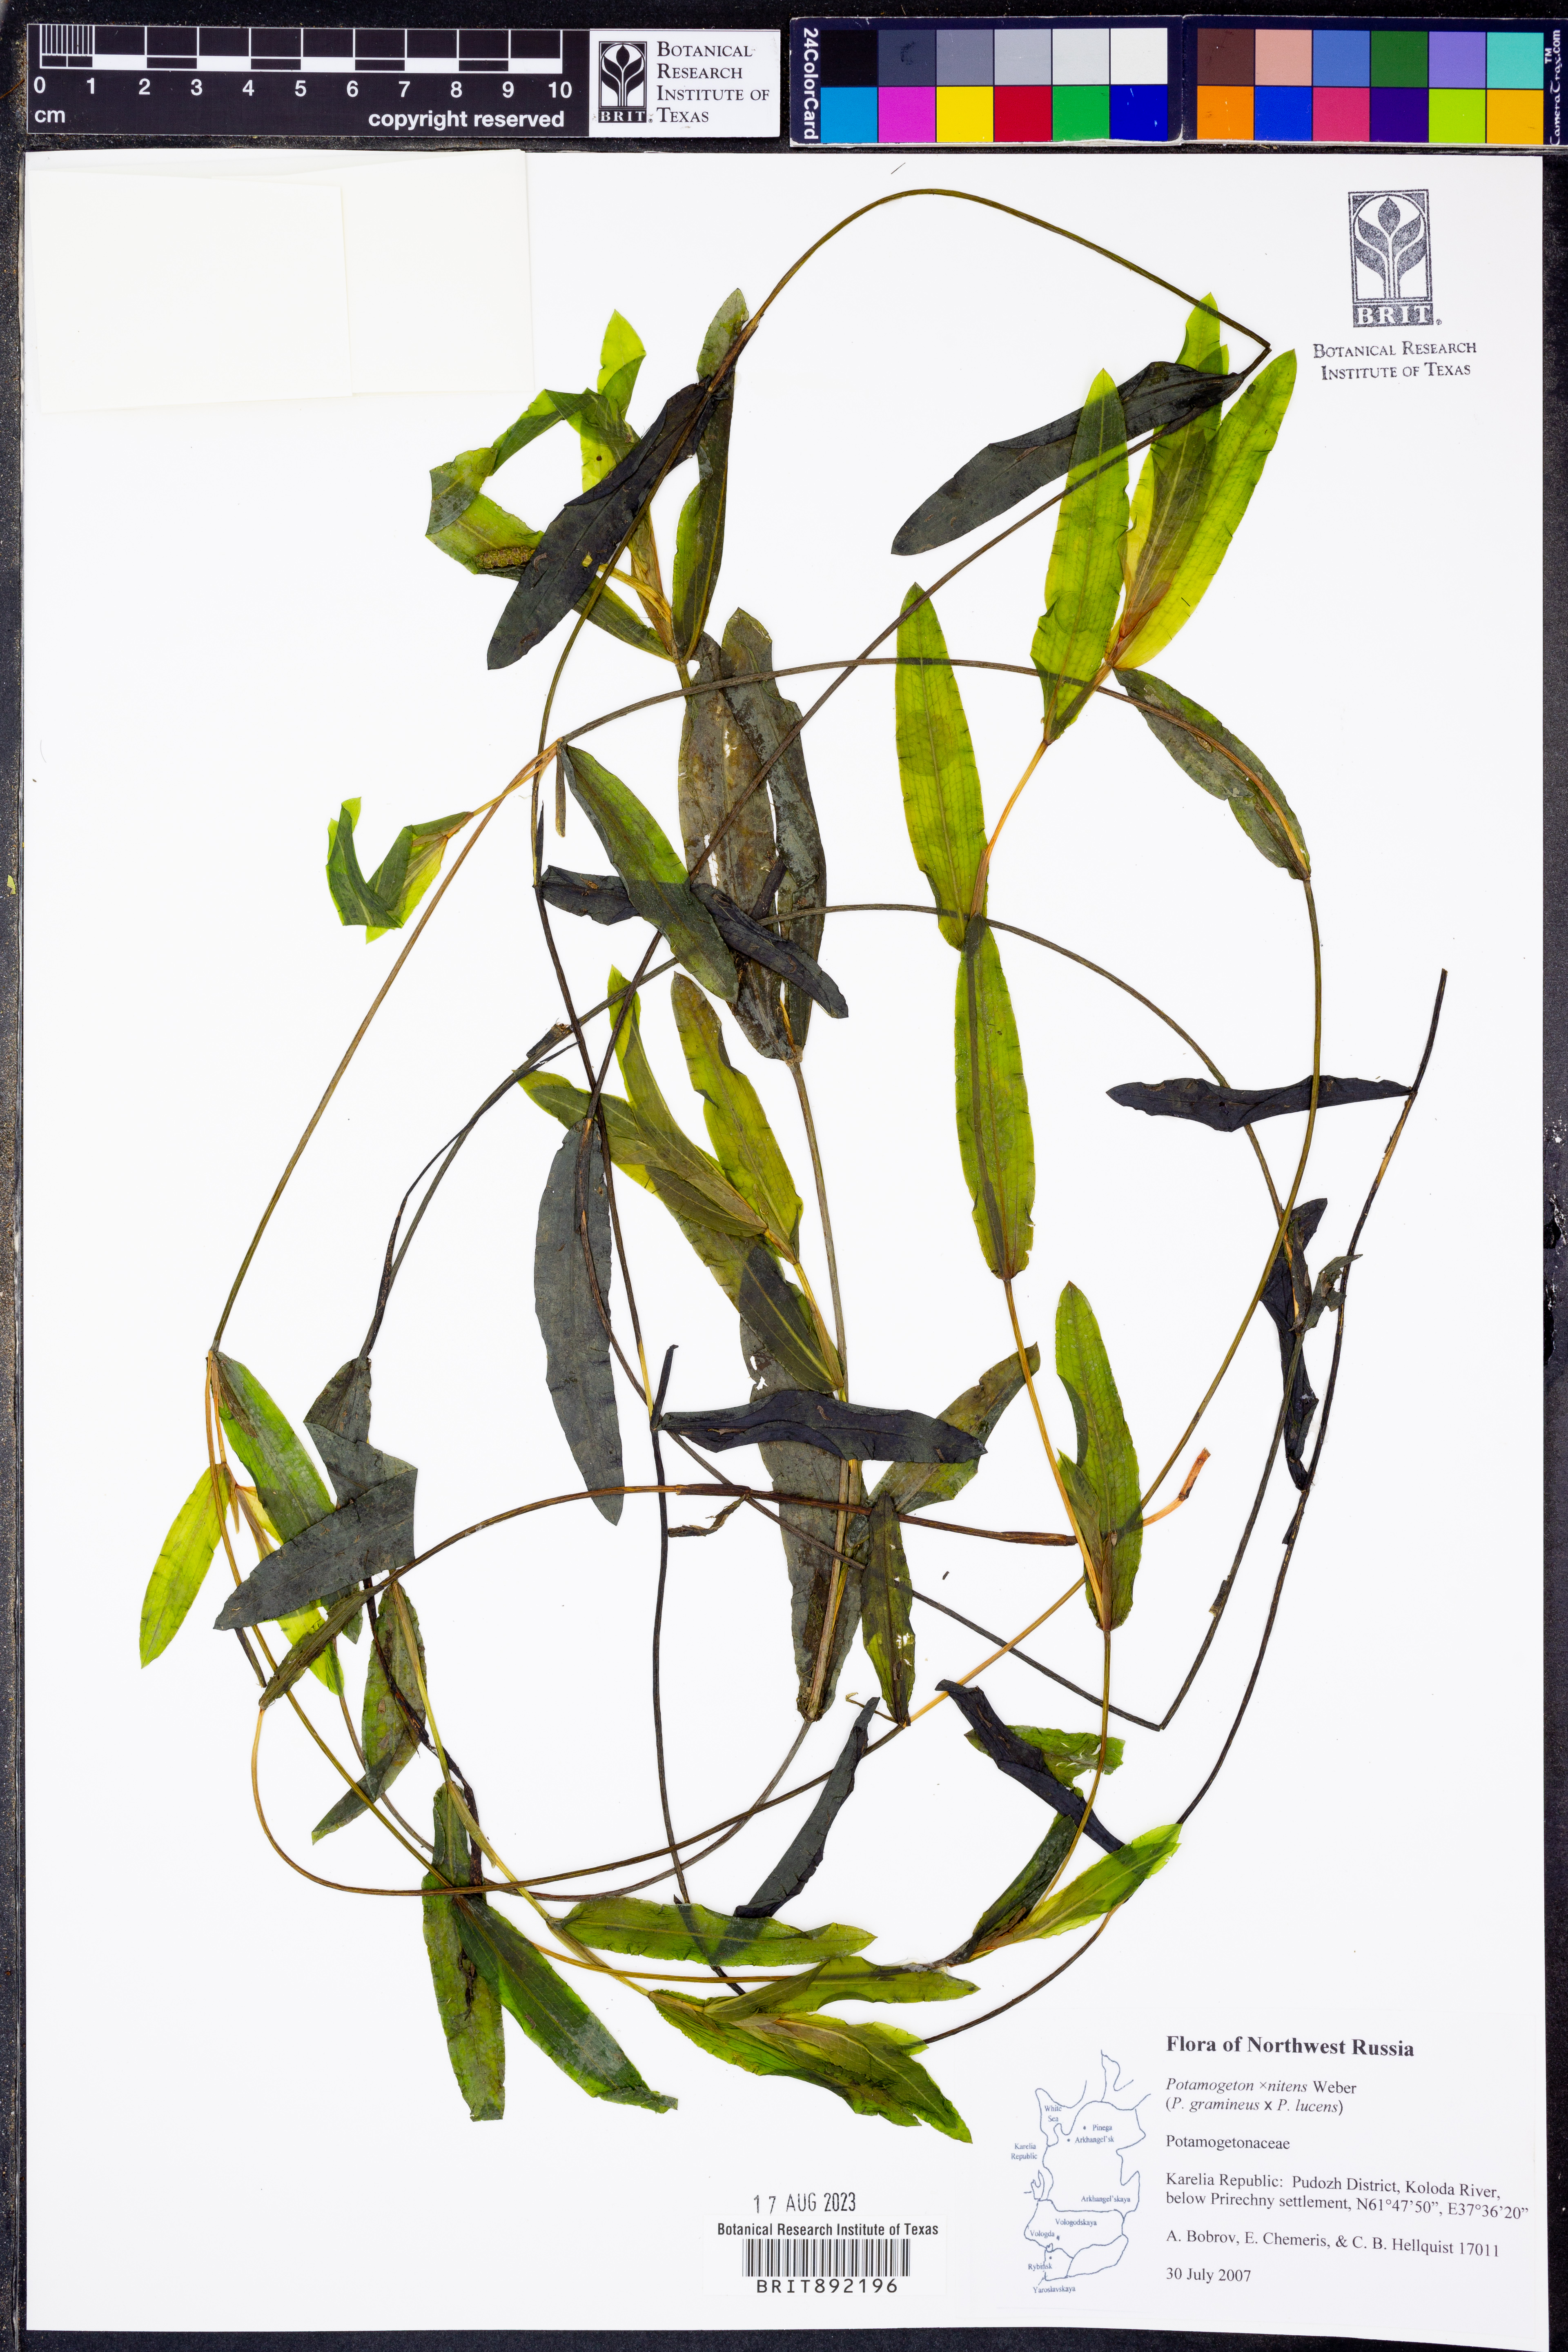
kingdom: Plantae
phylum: Tracheophyta
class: Liliopsida
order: Alismatales
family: Potamogetonaceae
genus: Potamogeton
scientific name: Potamogeton
